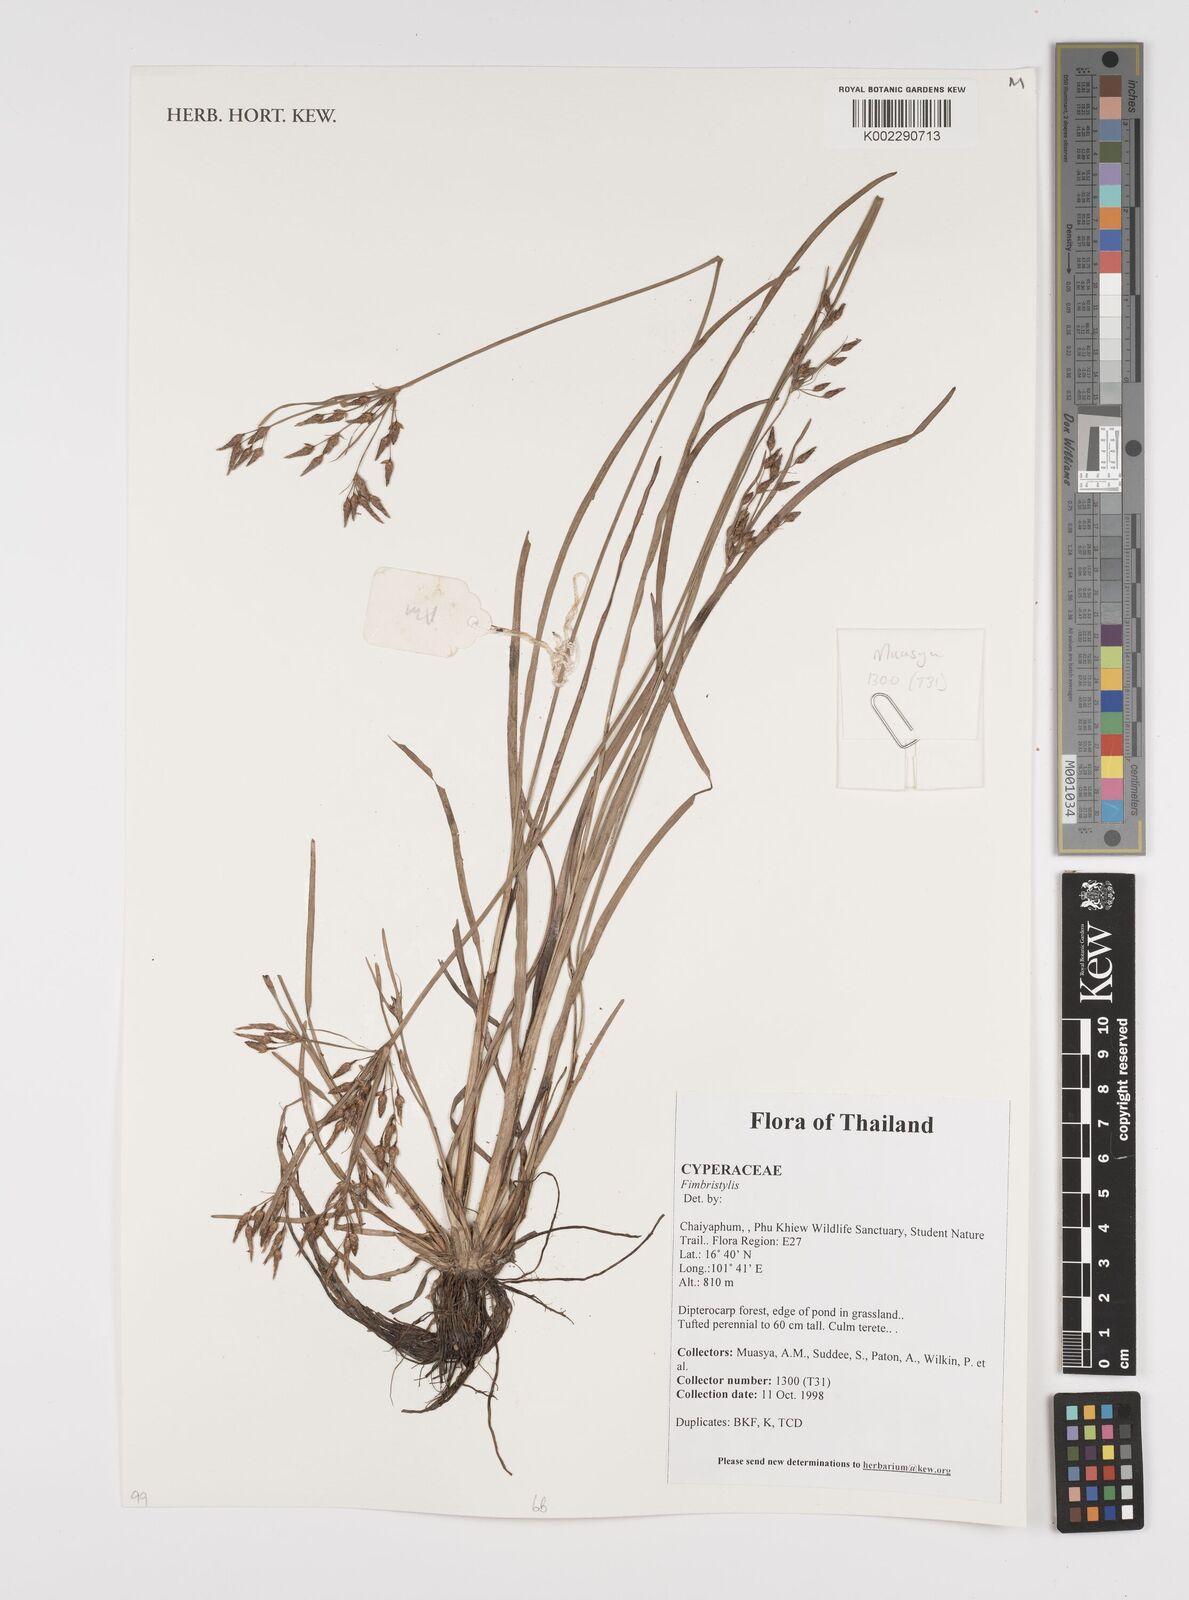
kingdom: Plantae
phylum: Tracheophyta
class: Liliopsida
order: Poales
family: Cyperaceae
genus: Fimbristylis
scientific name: Fimbristylis
